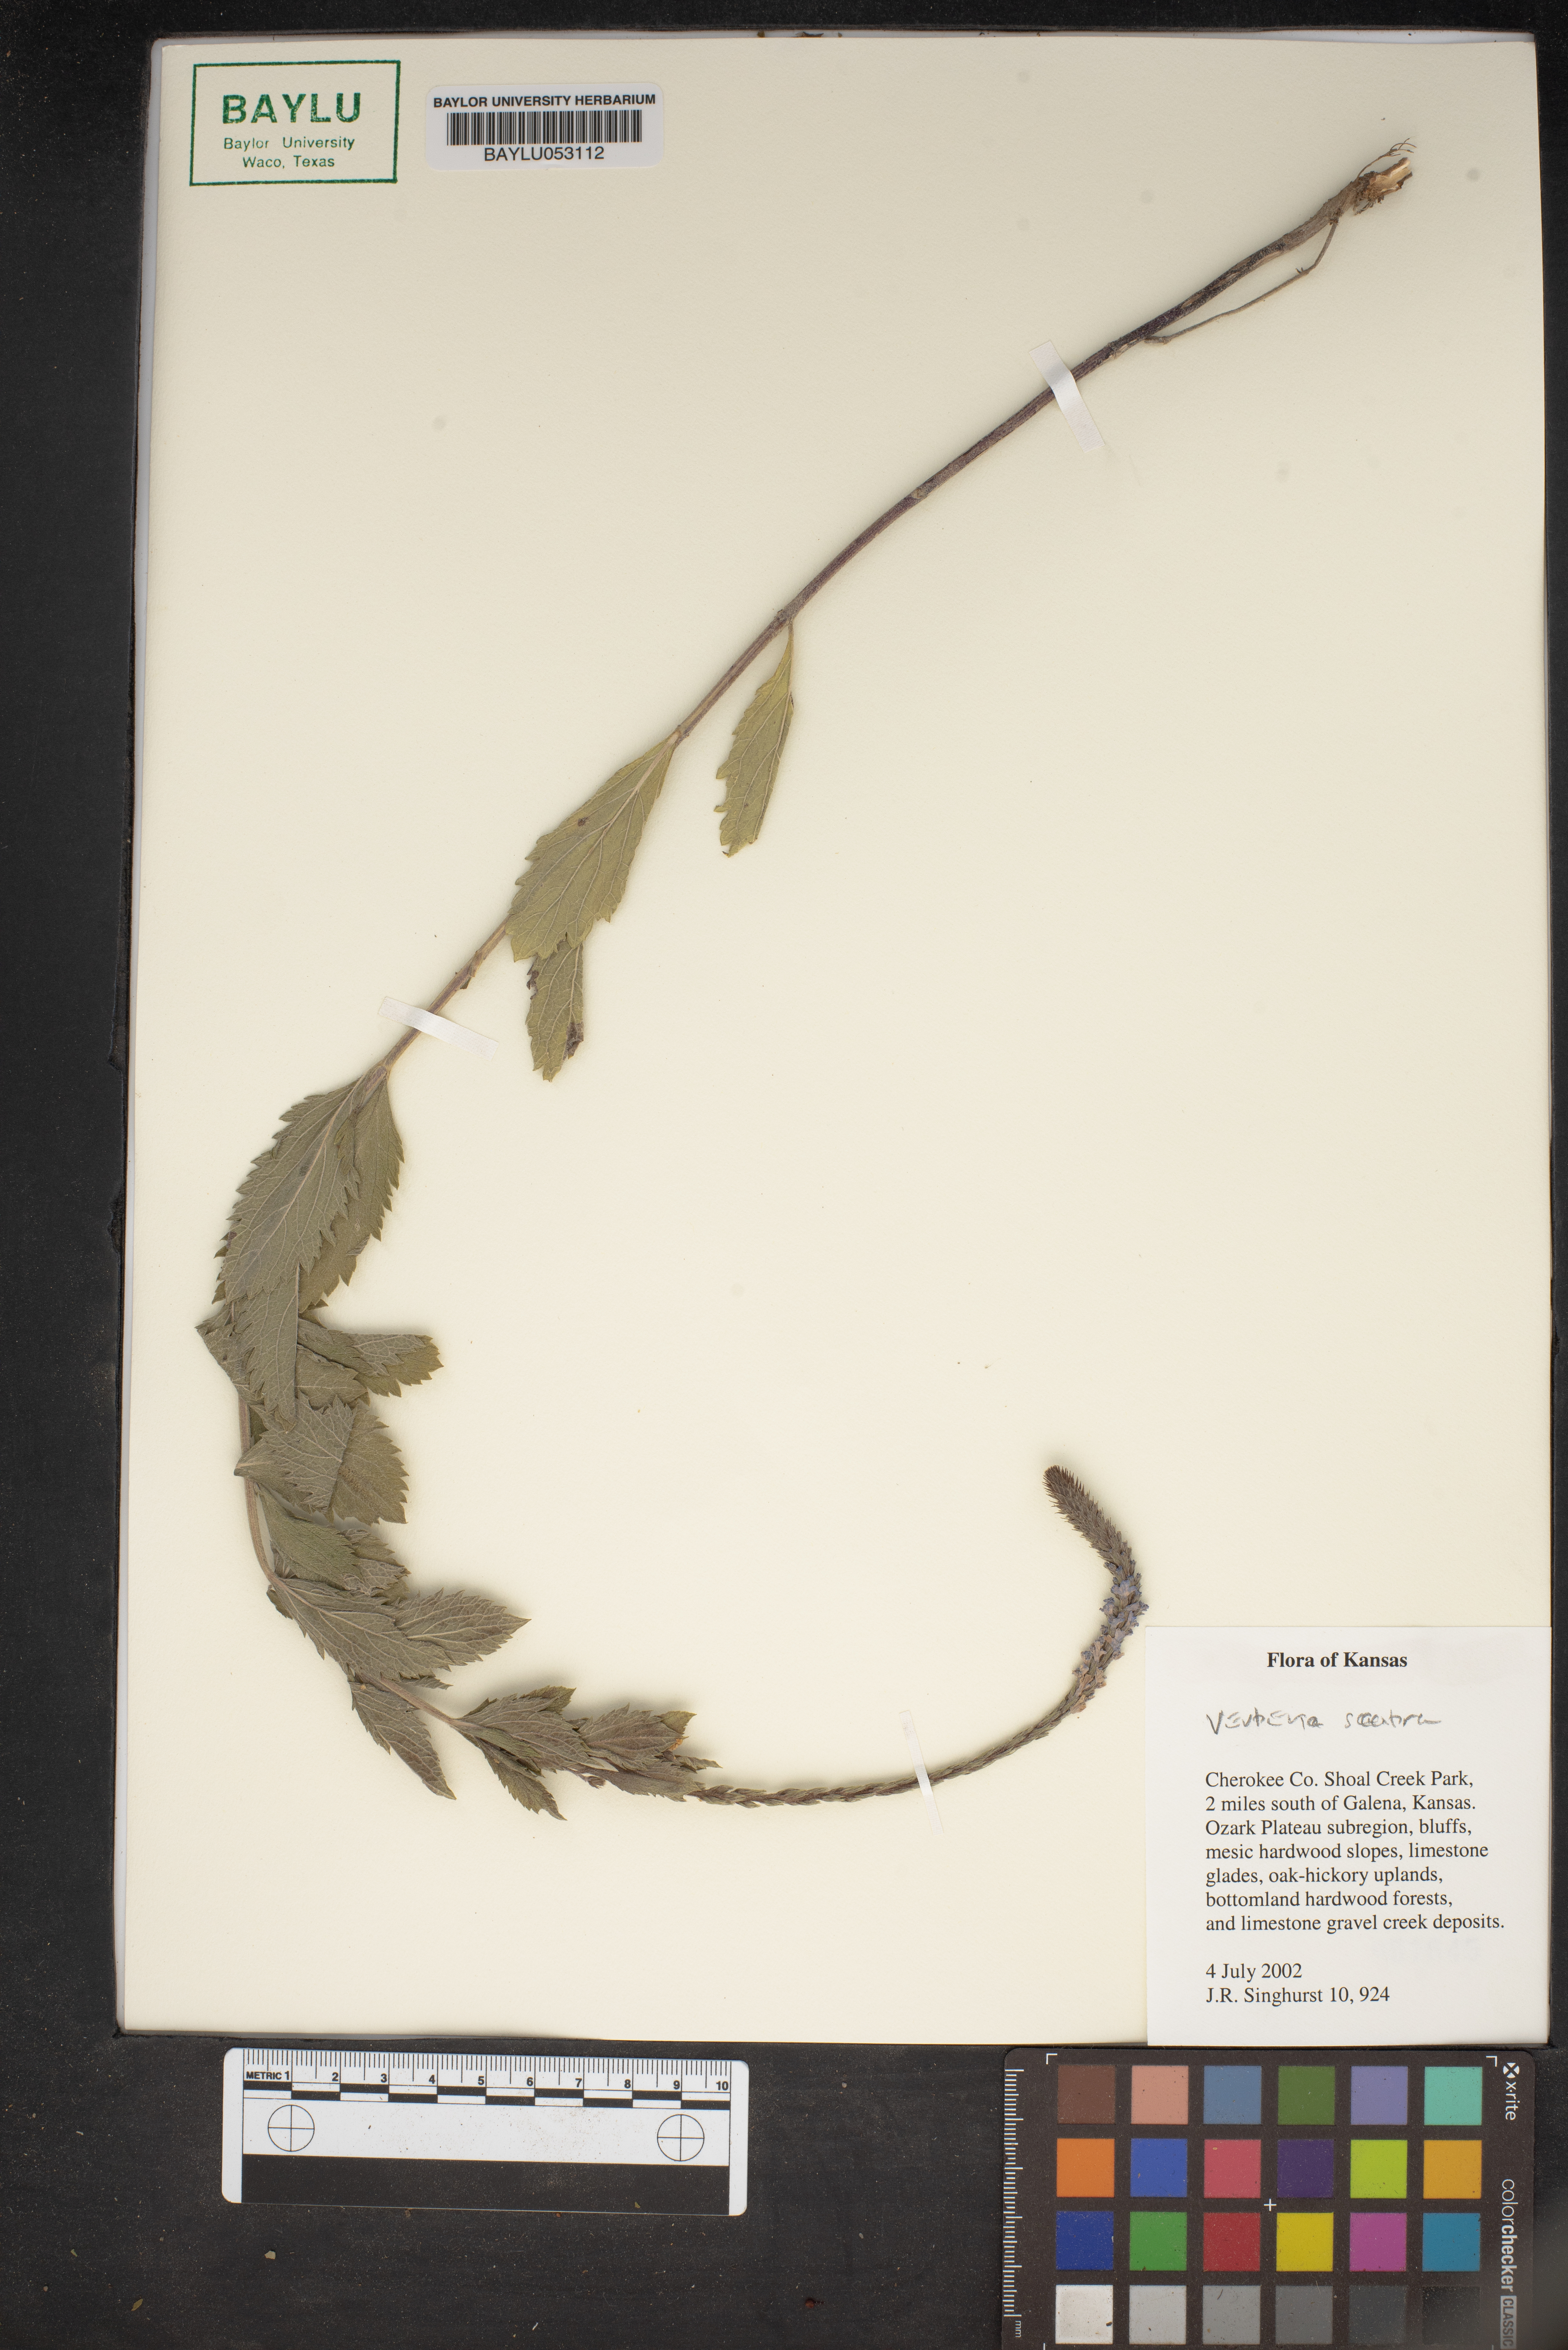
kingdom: Plantae
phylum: Tracheophyta
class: Magnoliopsida
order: Lamiales
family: Verbenaceae
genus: Verbena
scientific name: Verbena scabra
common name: Sandpaper vervain
